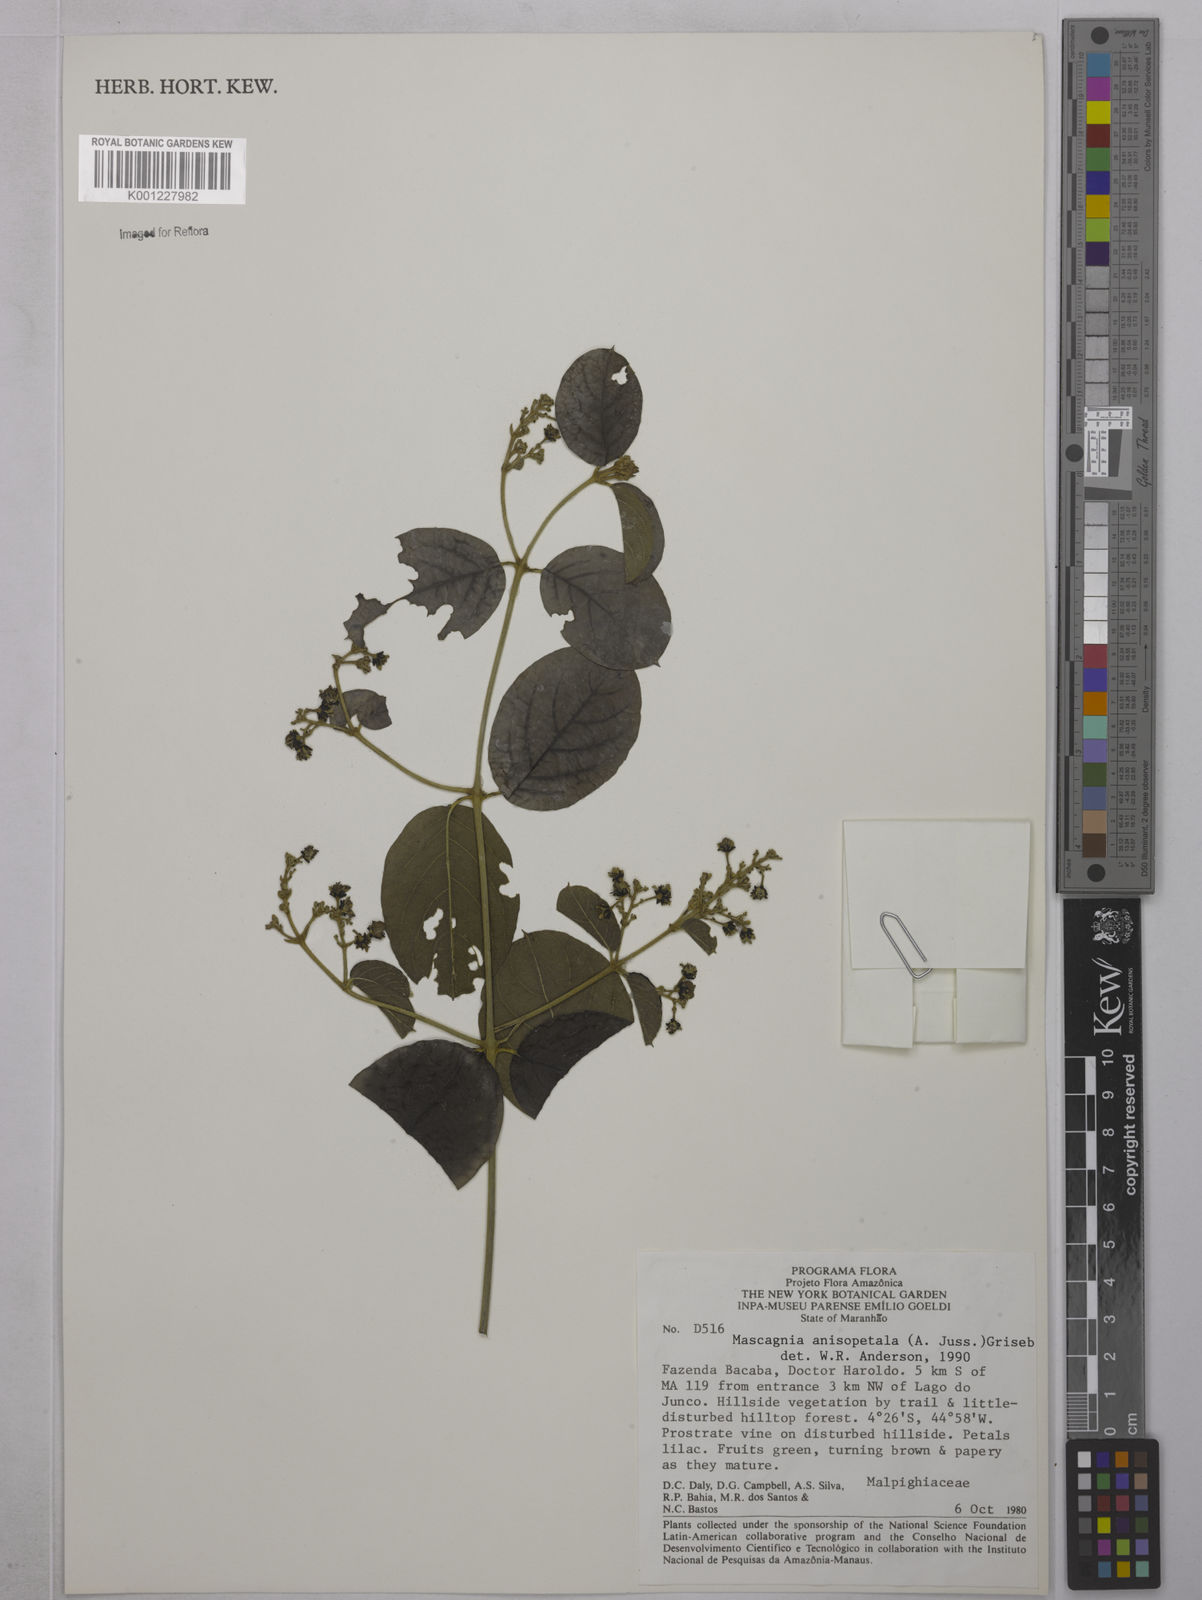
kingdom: Plantae
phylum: Tracheophyta
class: Magnoliopsida
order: Malpighiales
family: Malpighiaceae
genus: Alicia
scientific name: Alicia anisopetala
